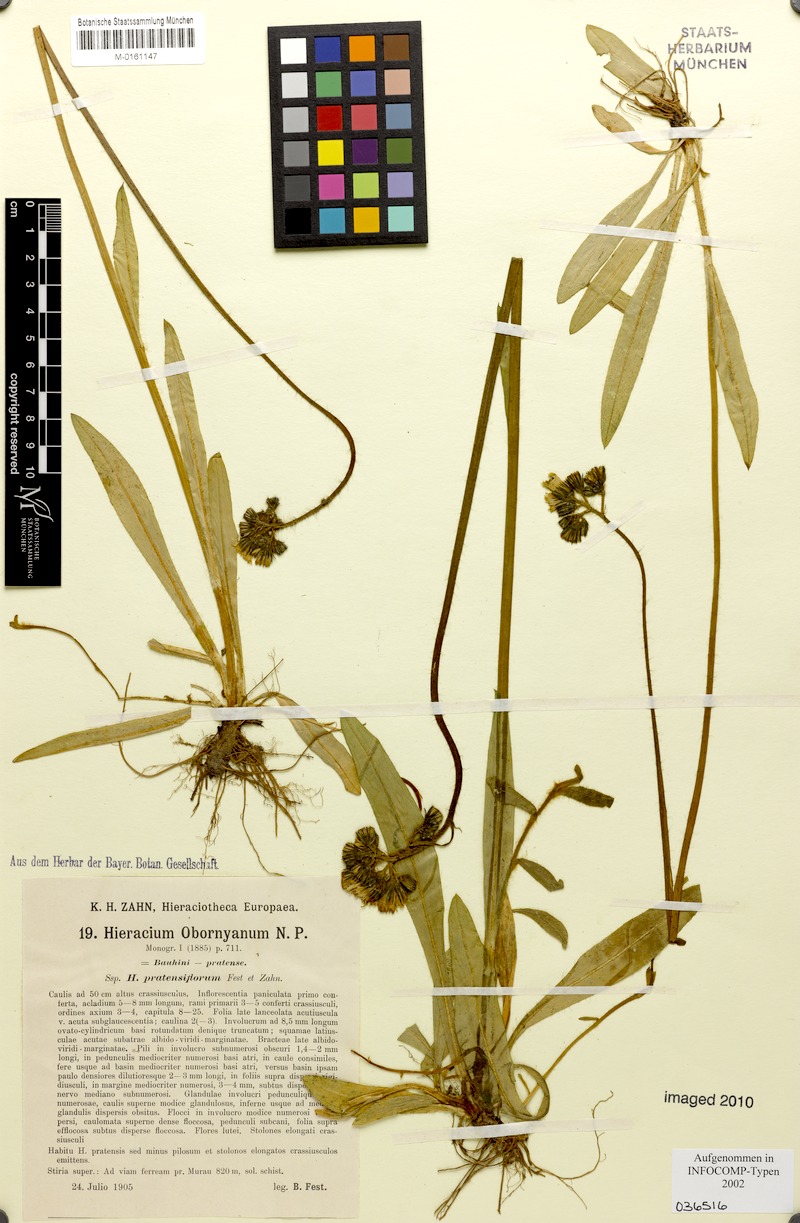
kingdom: Plantae
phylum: Tracheophyta
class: Magnoliopsida
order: Asterales
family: Asteraceae
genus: Pilosella
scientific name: Pilosella polymastix
